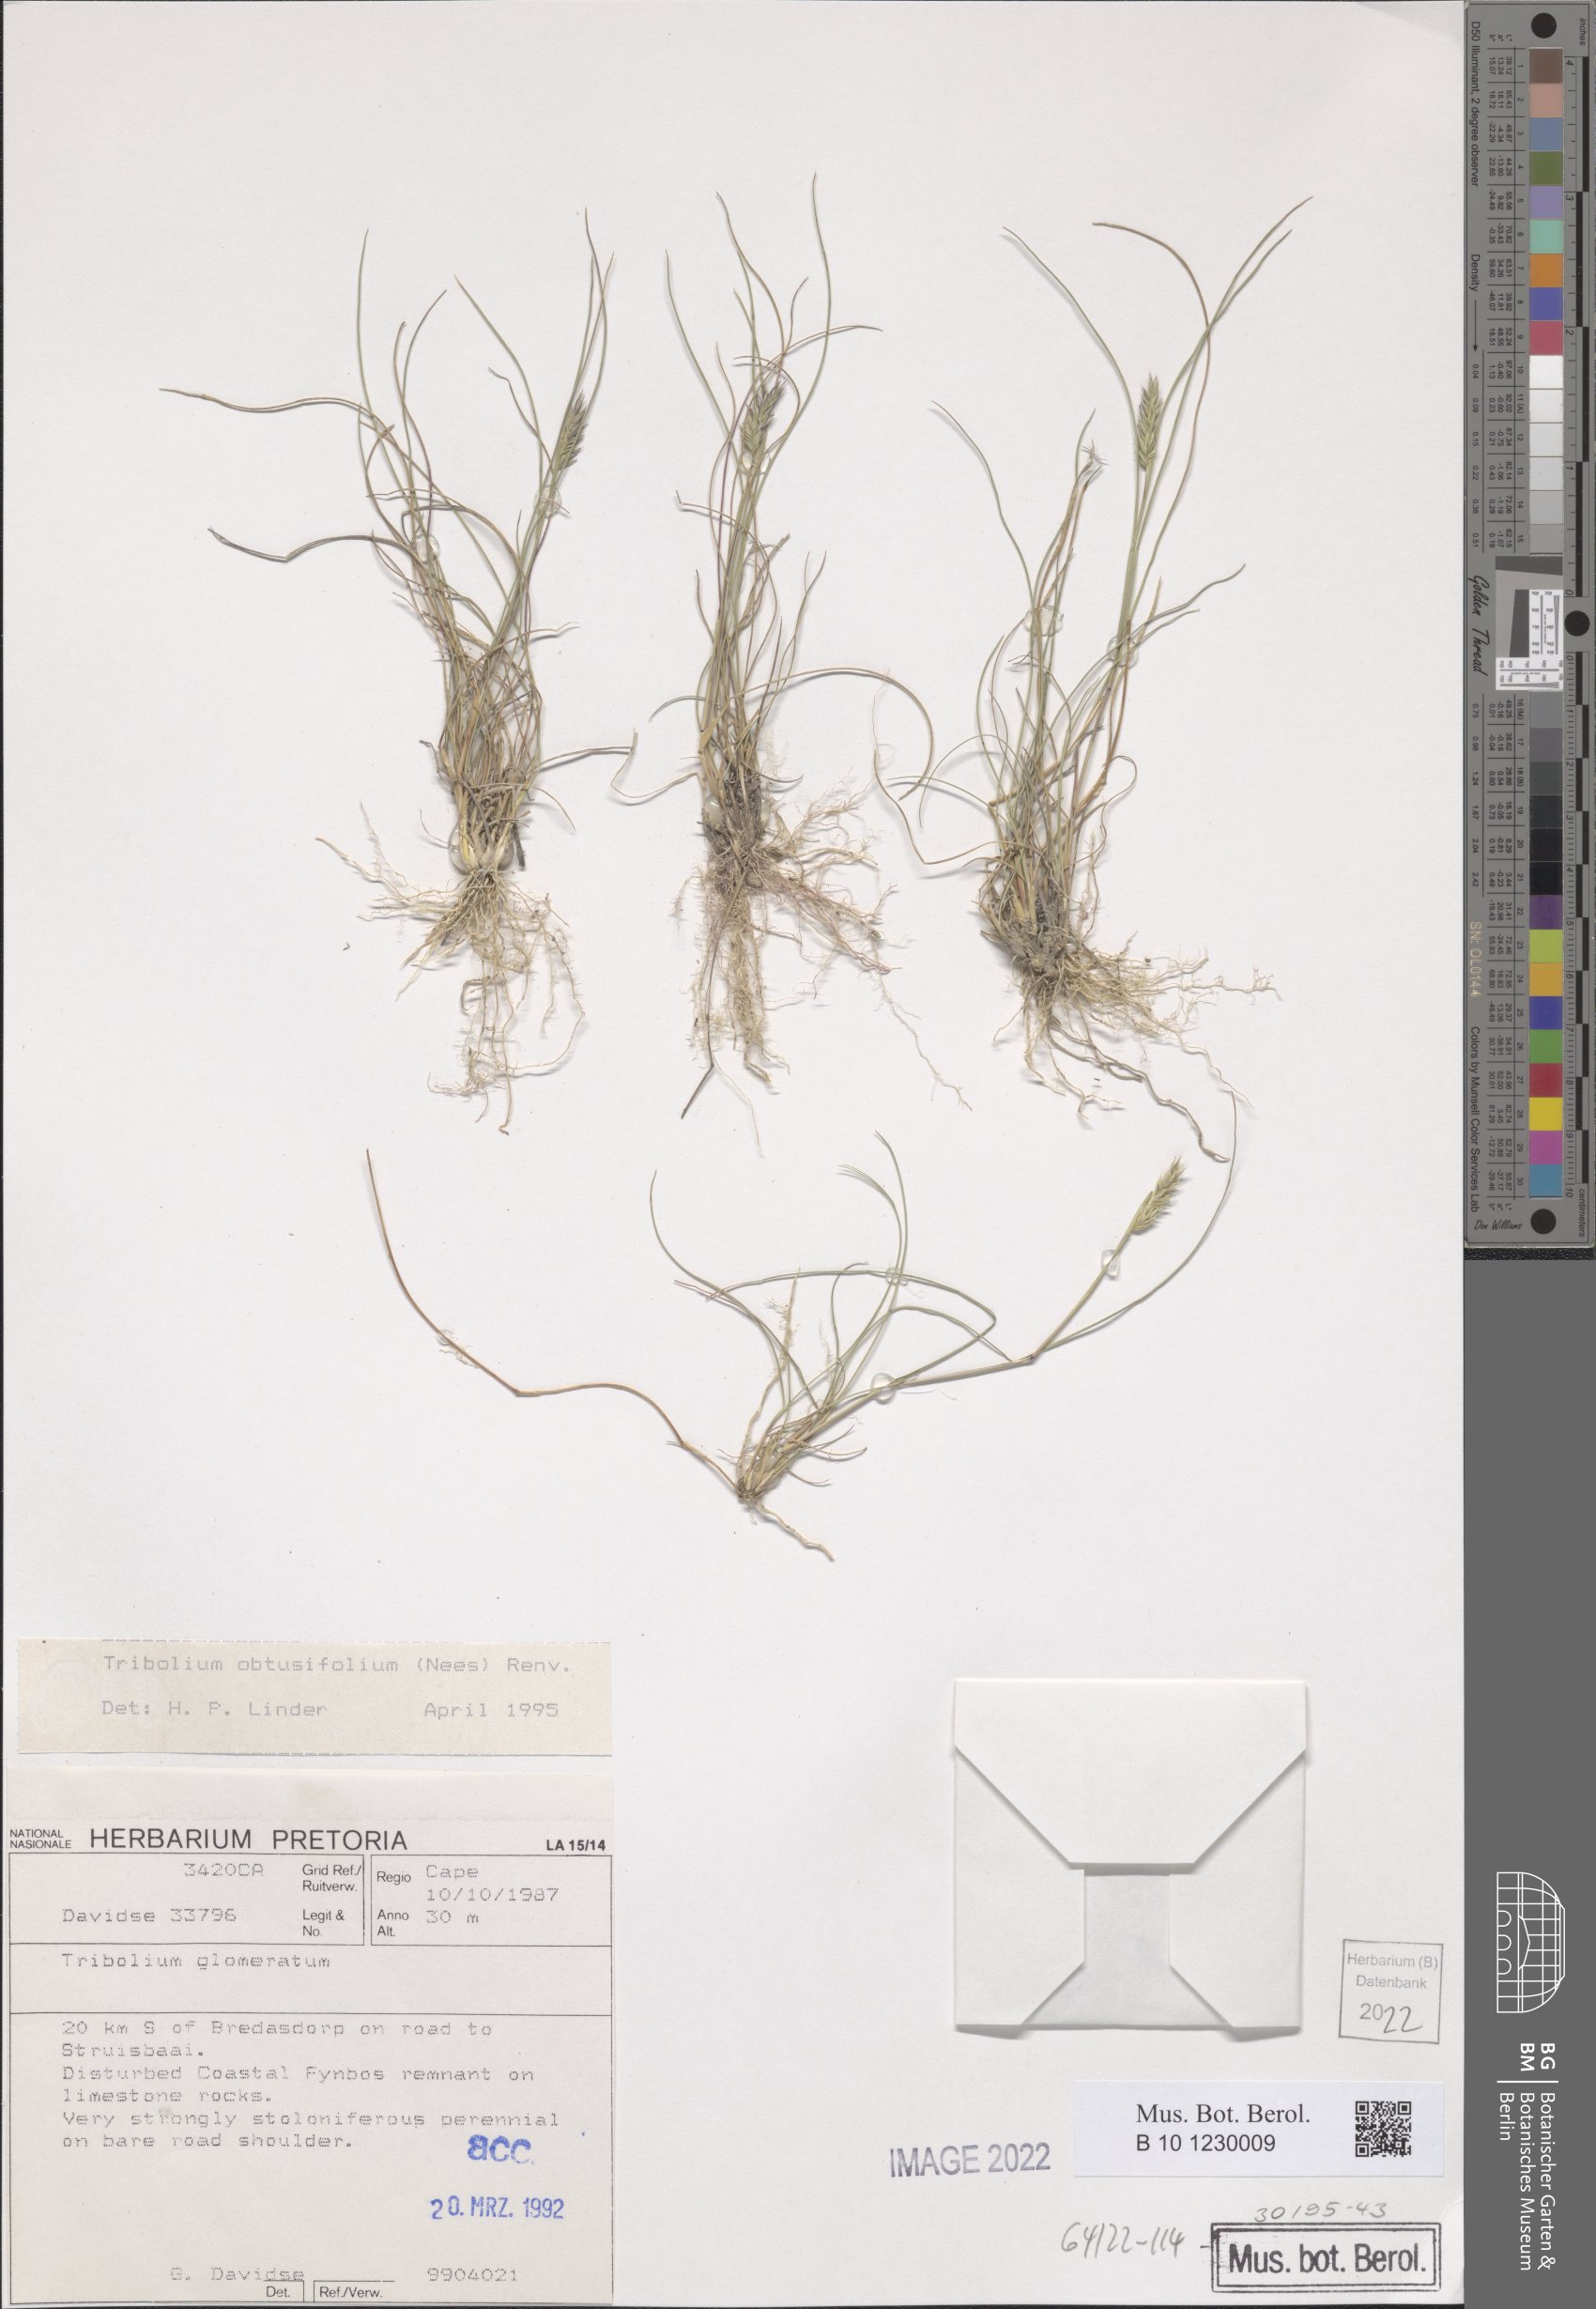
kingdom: Plantae
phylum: Tracheophyta
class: Liliopsida
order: Poales
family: Poaceae
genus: Tribolium
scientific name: Tribolium obtusifolium
